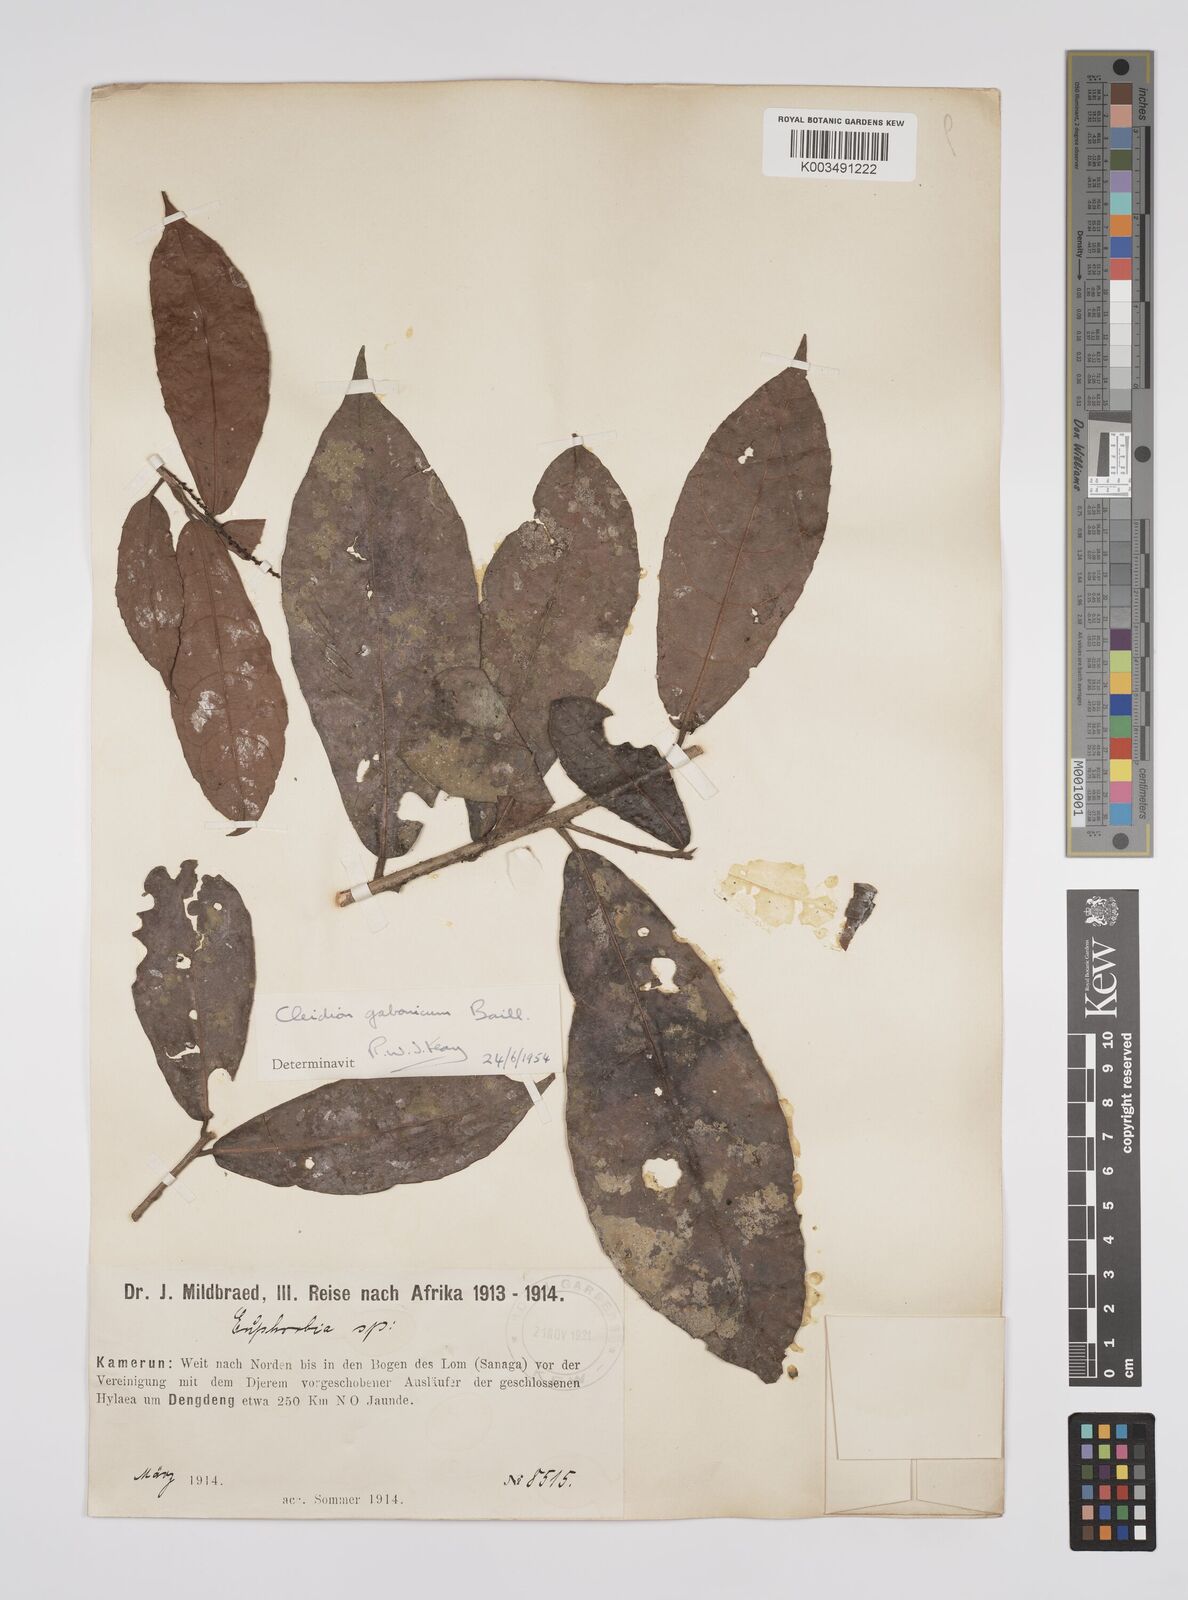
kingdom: Plantae
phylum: Tracheophyta
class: Magnoliopsida
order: Malpighiales
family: Euphorbiaceae
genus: Cleidion
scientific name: Cleidion gabonicum
